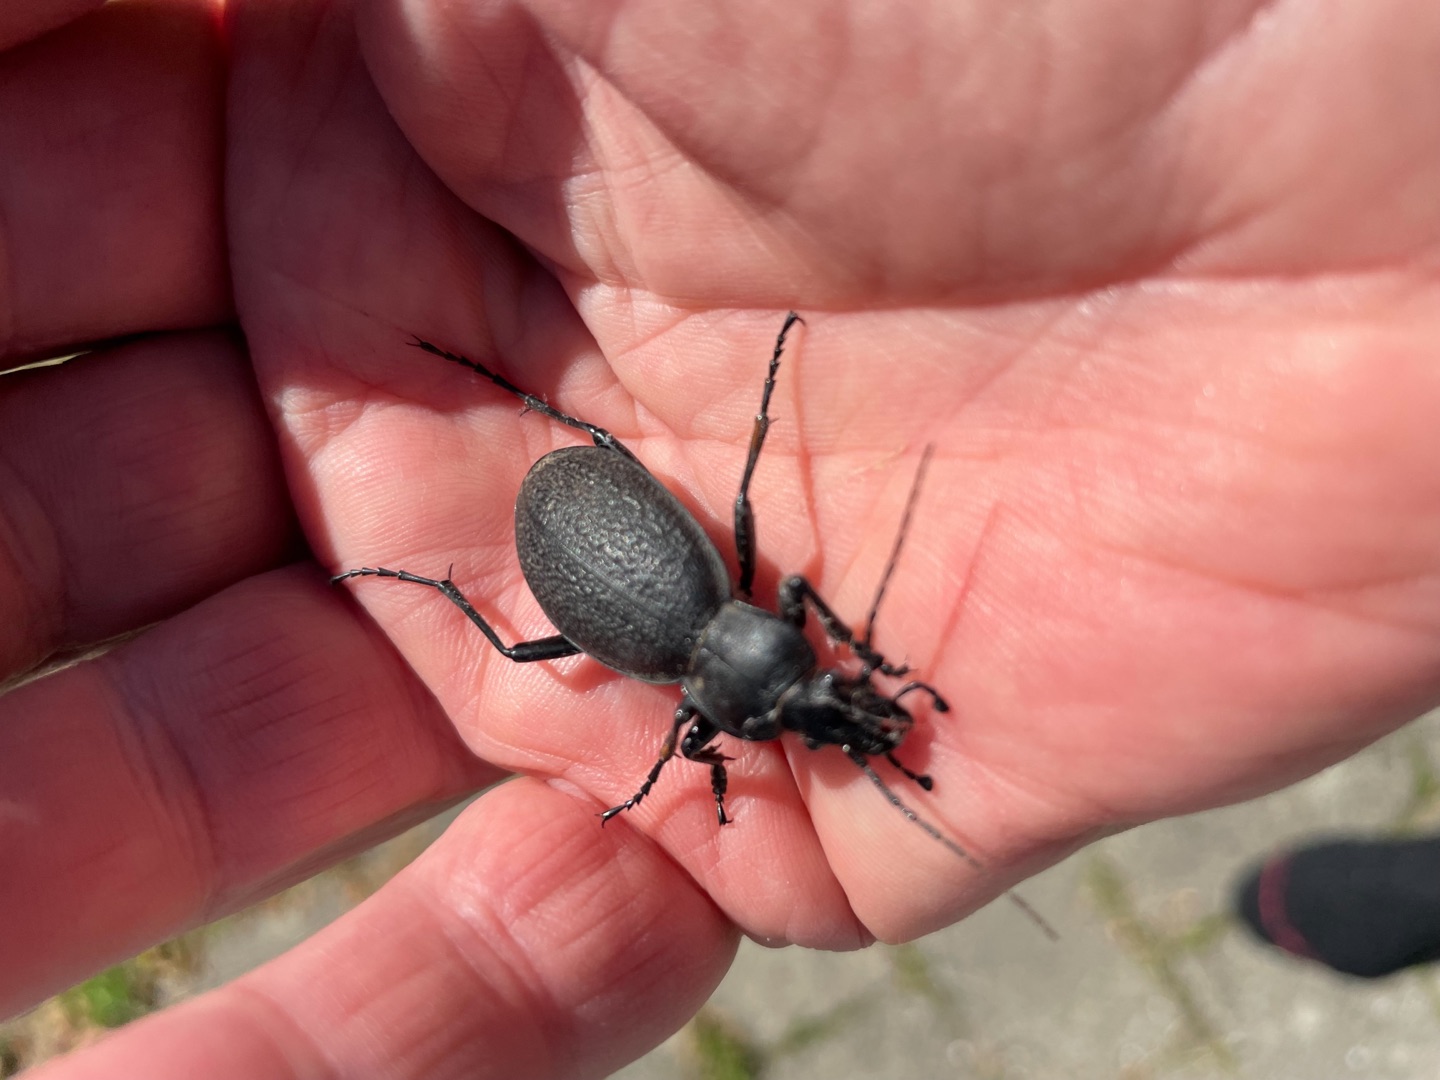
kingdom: Animalia
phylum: Arthropoda
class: Insecta
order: Coleoptera
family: Carabidae
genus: Carabus
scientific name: Carabus coriaceus
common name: Læderløber
